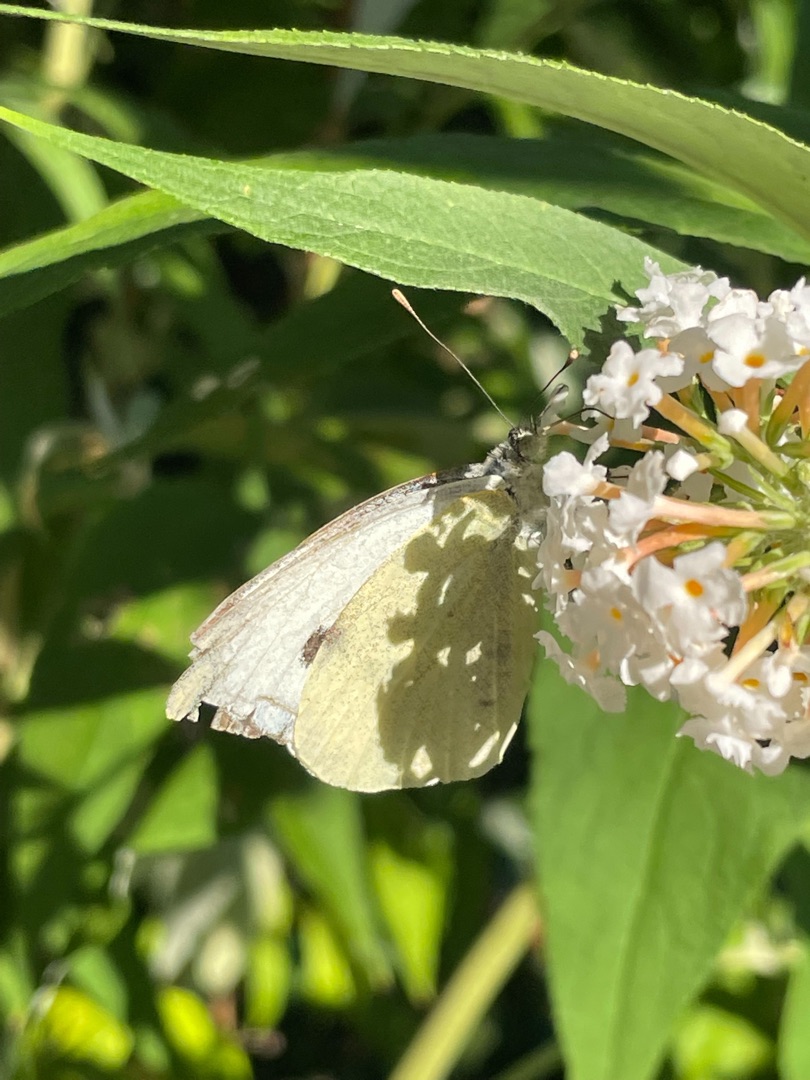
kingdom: Animalia
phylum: Arthropoda
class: Insecta
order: Lepidoptera
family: Pieridae
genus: Pieris
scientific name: Pieris brassicae
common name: Stor kålsommerfugl
